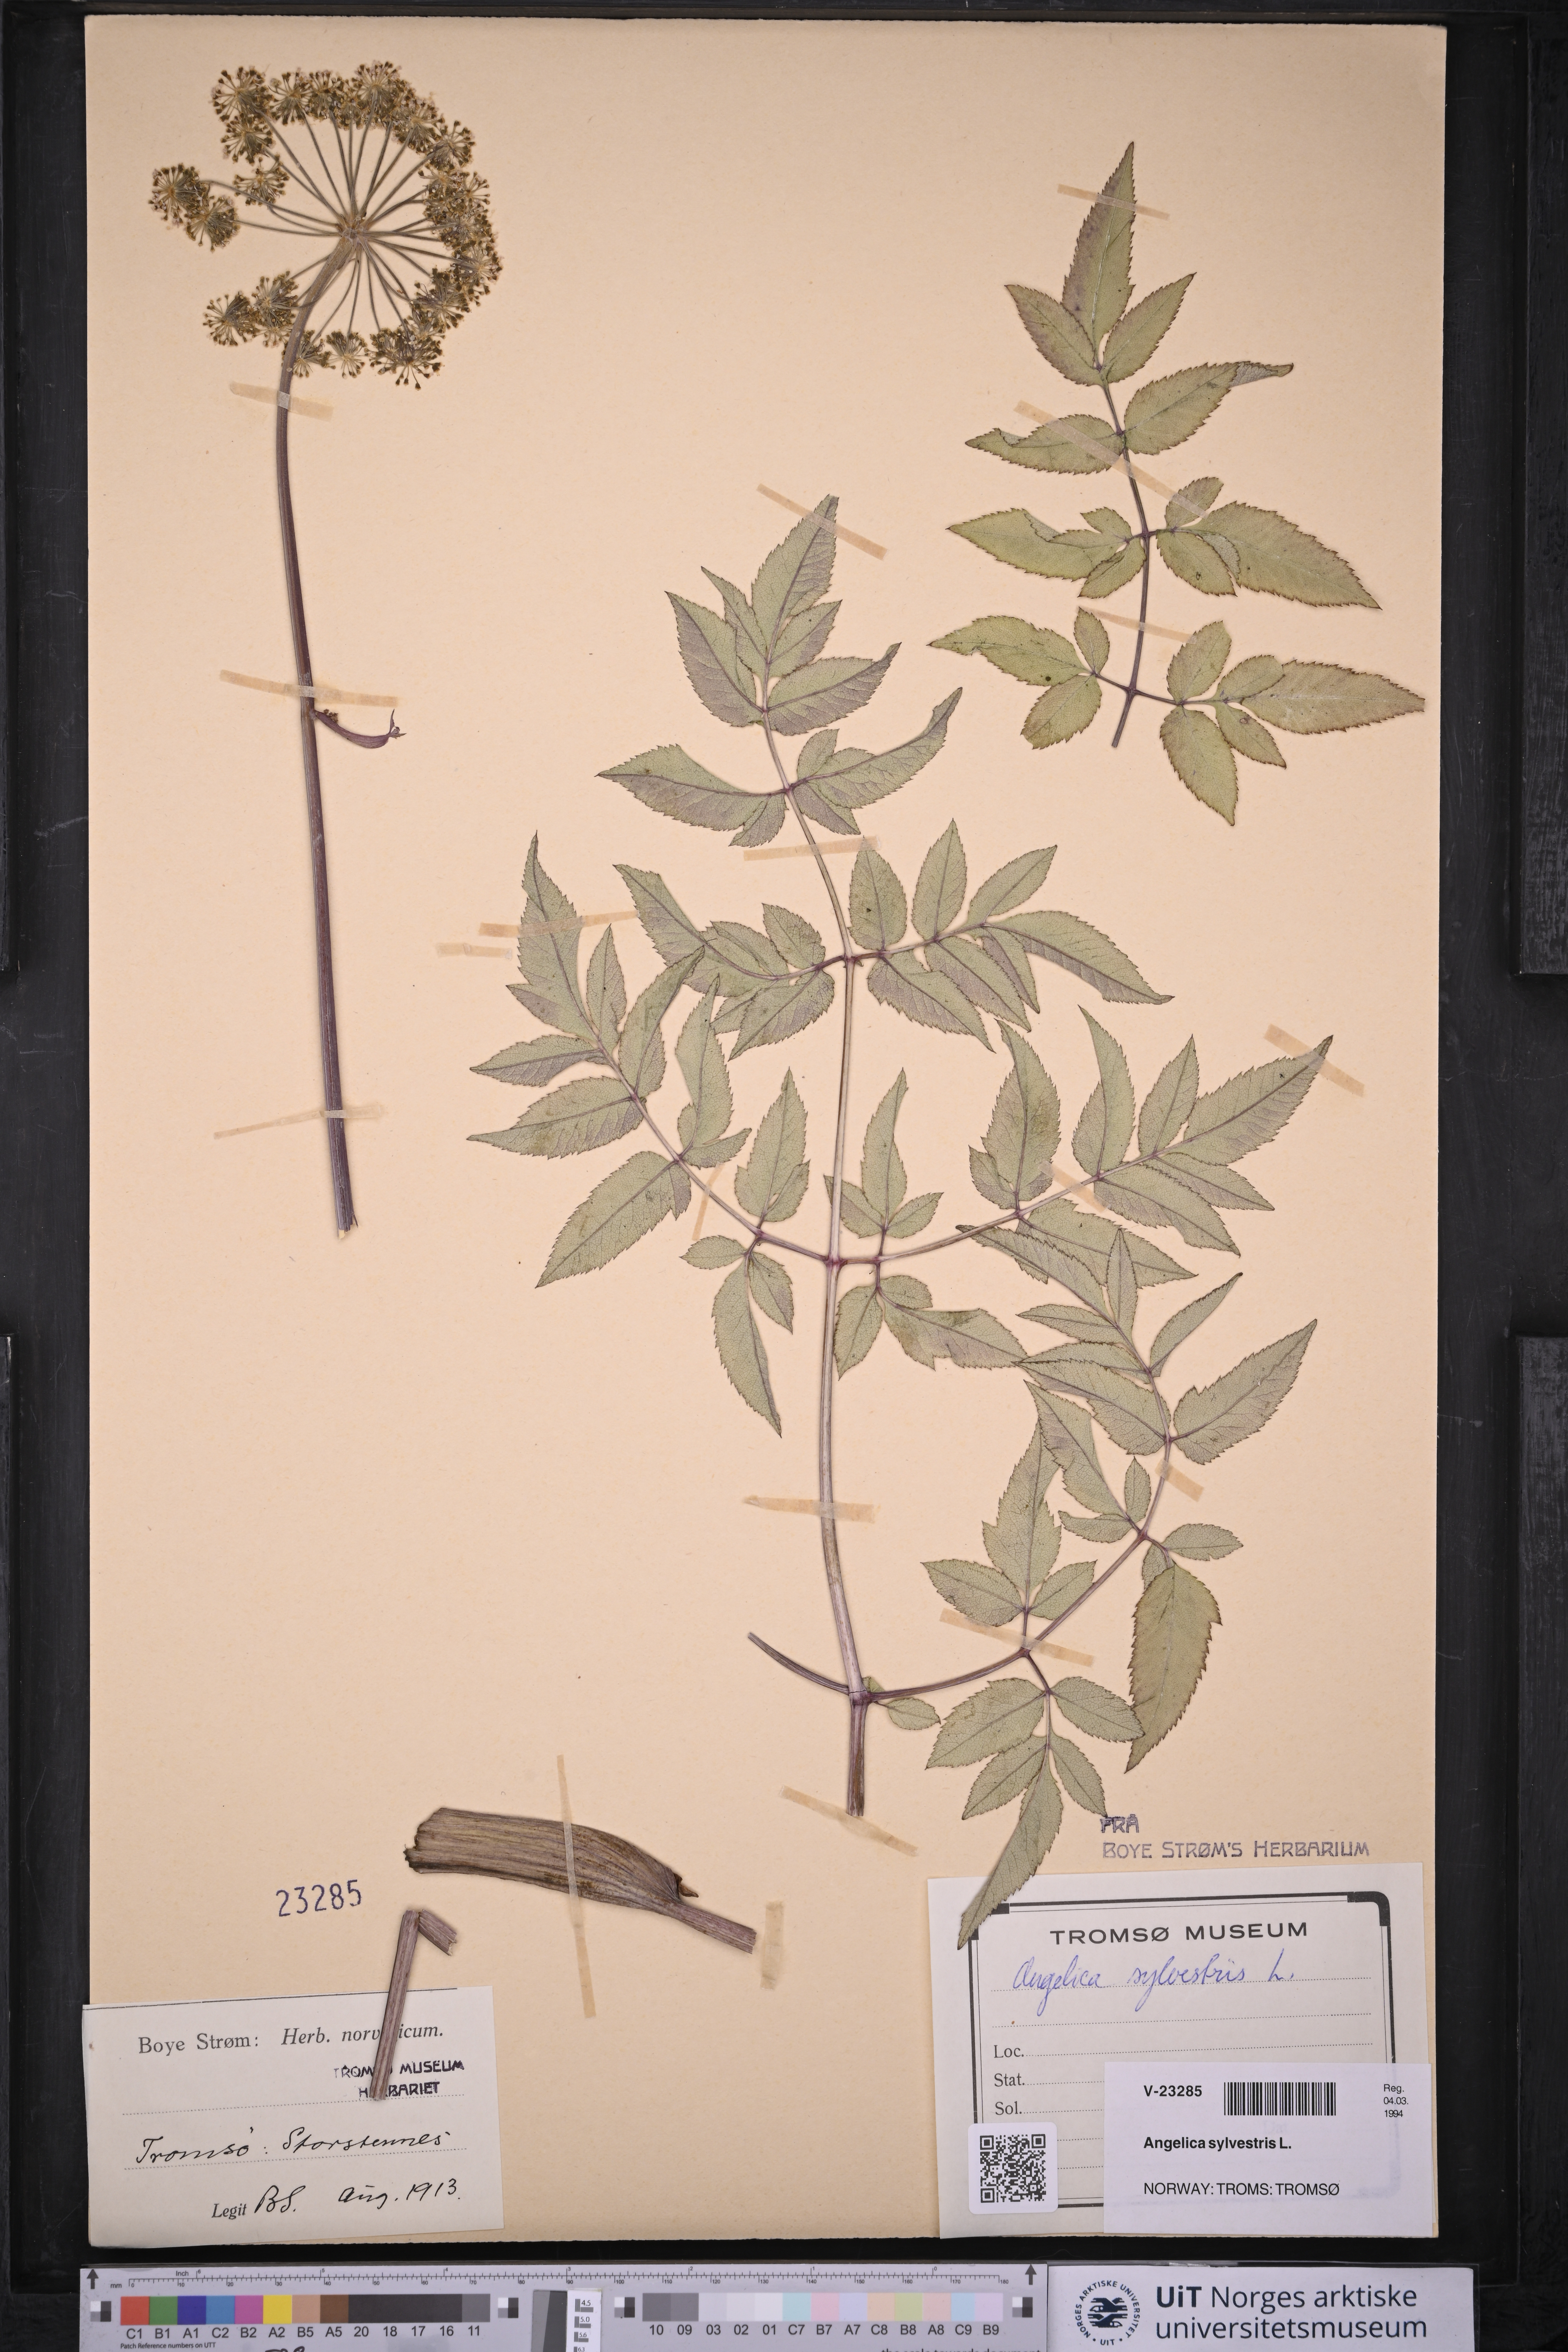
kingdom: Plantae
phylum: Tracheophyta
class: Magnoliopsida
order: Apiales
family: Apiaceae
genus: Angelica
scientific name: Angelica sylvestris
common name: Wild angelica
